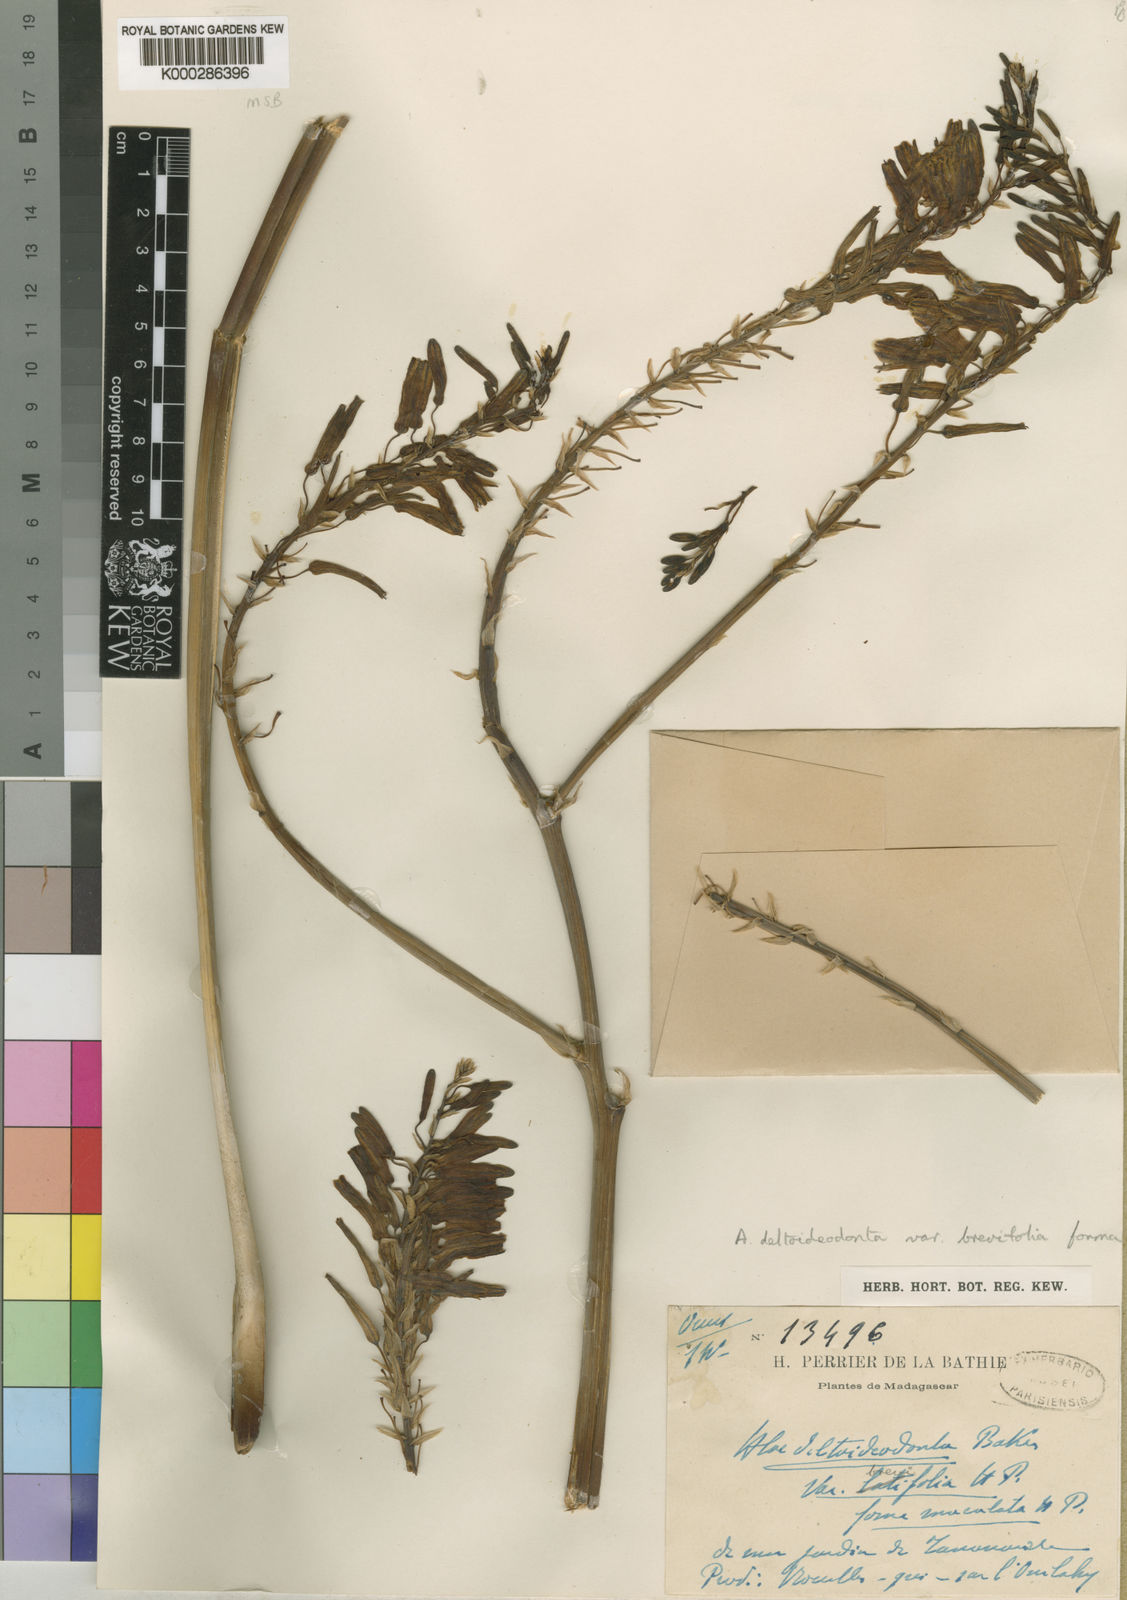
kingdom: Plantae
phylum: Tracheophyta
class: Liliopsida
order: Asparagales
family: Asphodelaceae
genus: Aloe
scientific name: Aloe deltoideodonta
